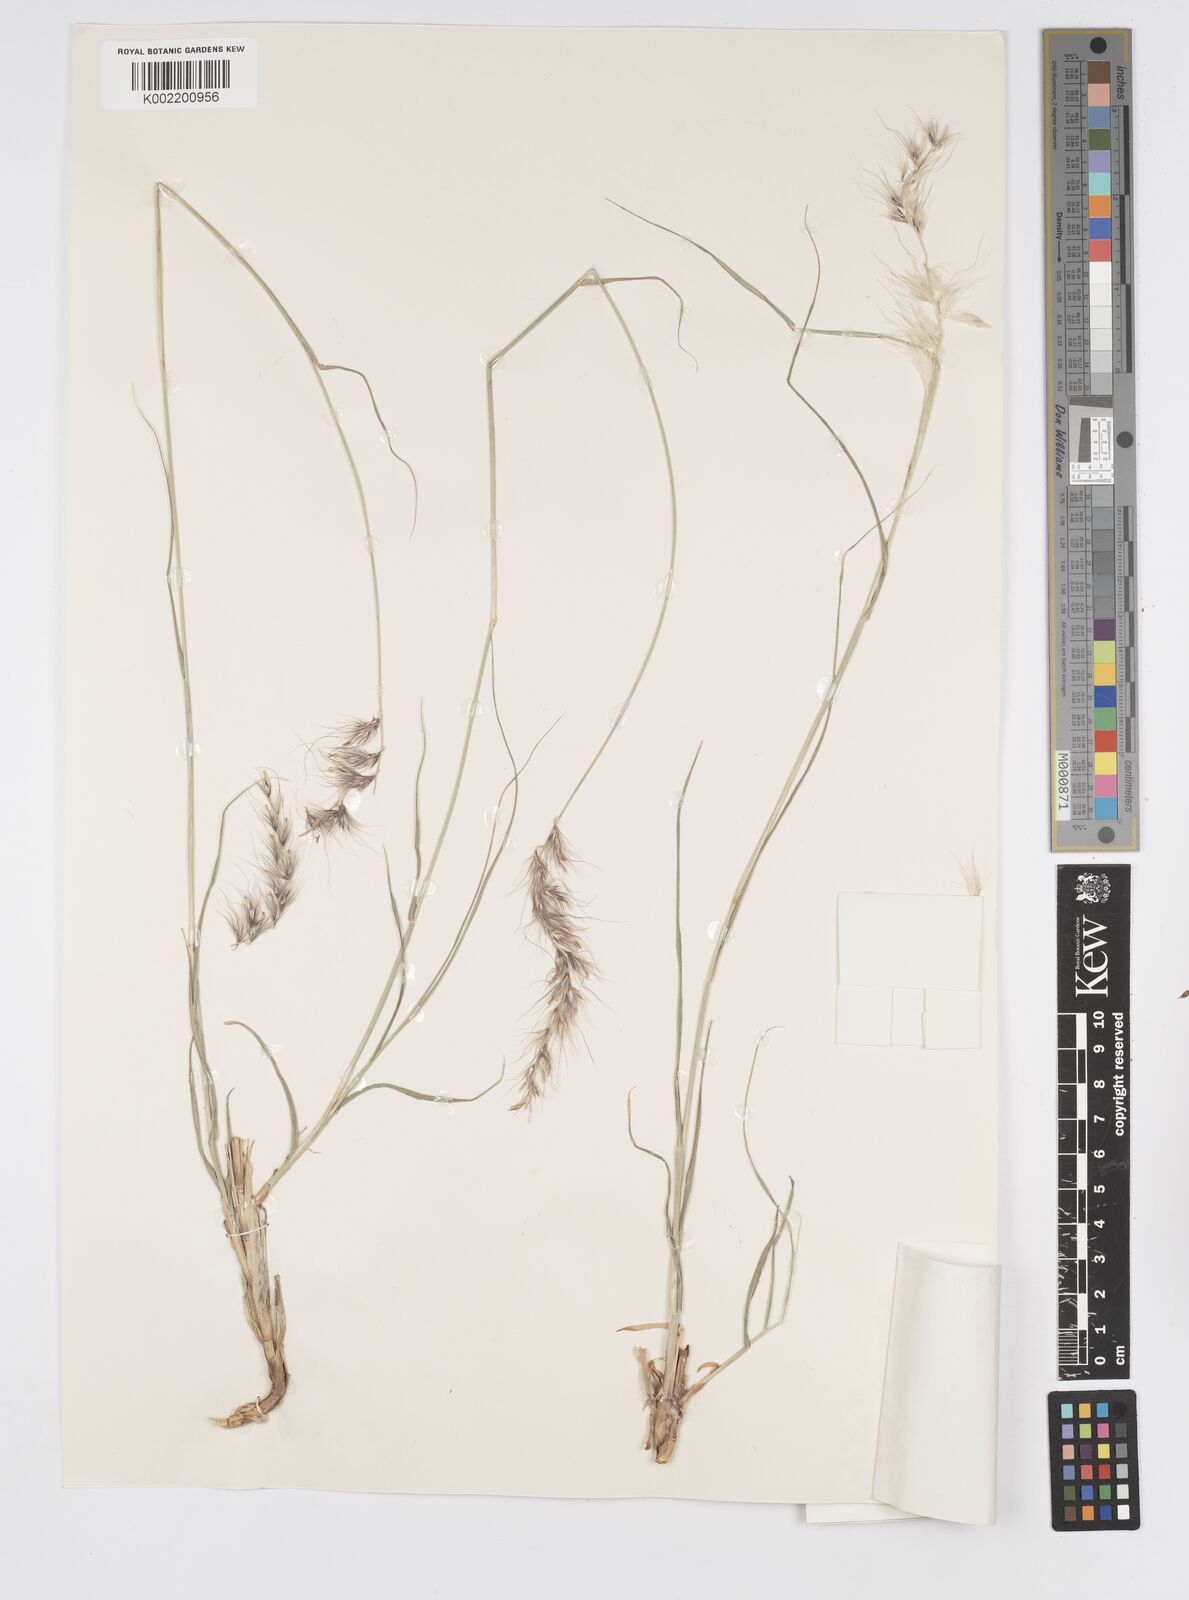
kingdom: Plantae
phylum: Tracheophyta
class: Liliopsida
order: Poales
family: Poaceae
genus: Cenchrus
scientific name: Cenchrus orientalis
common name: Oriental fountain grass
